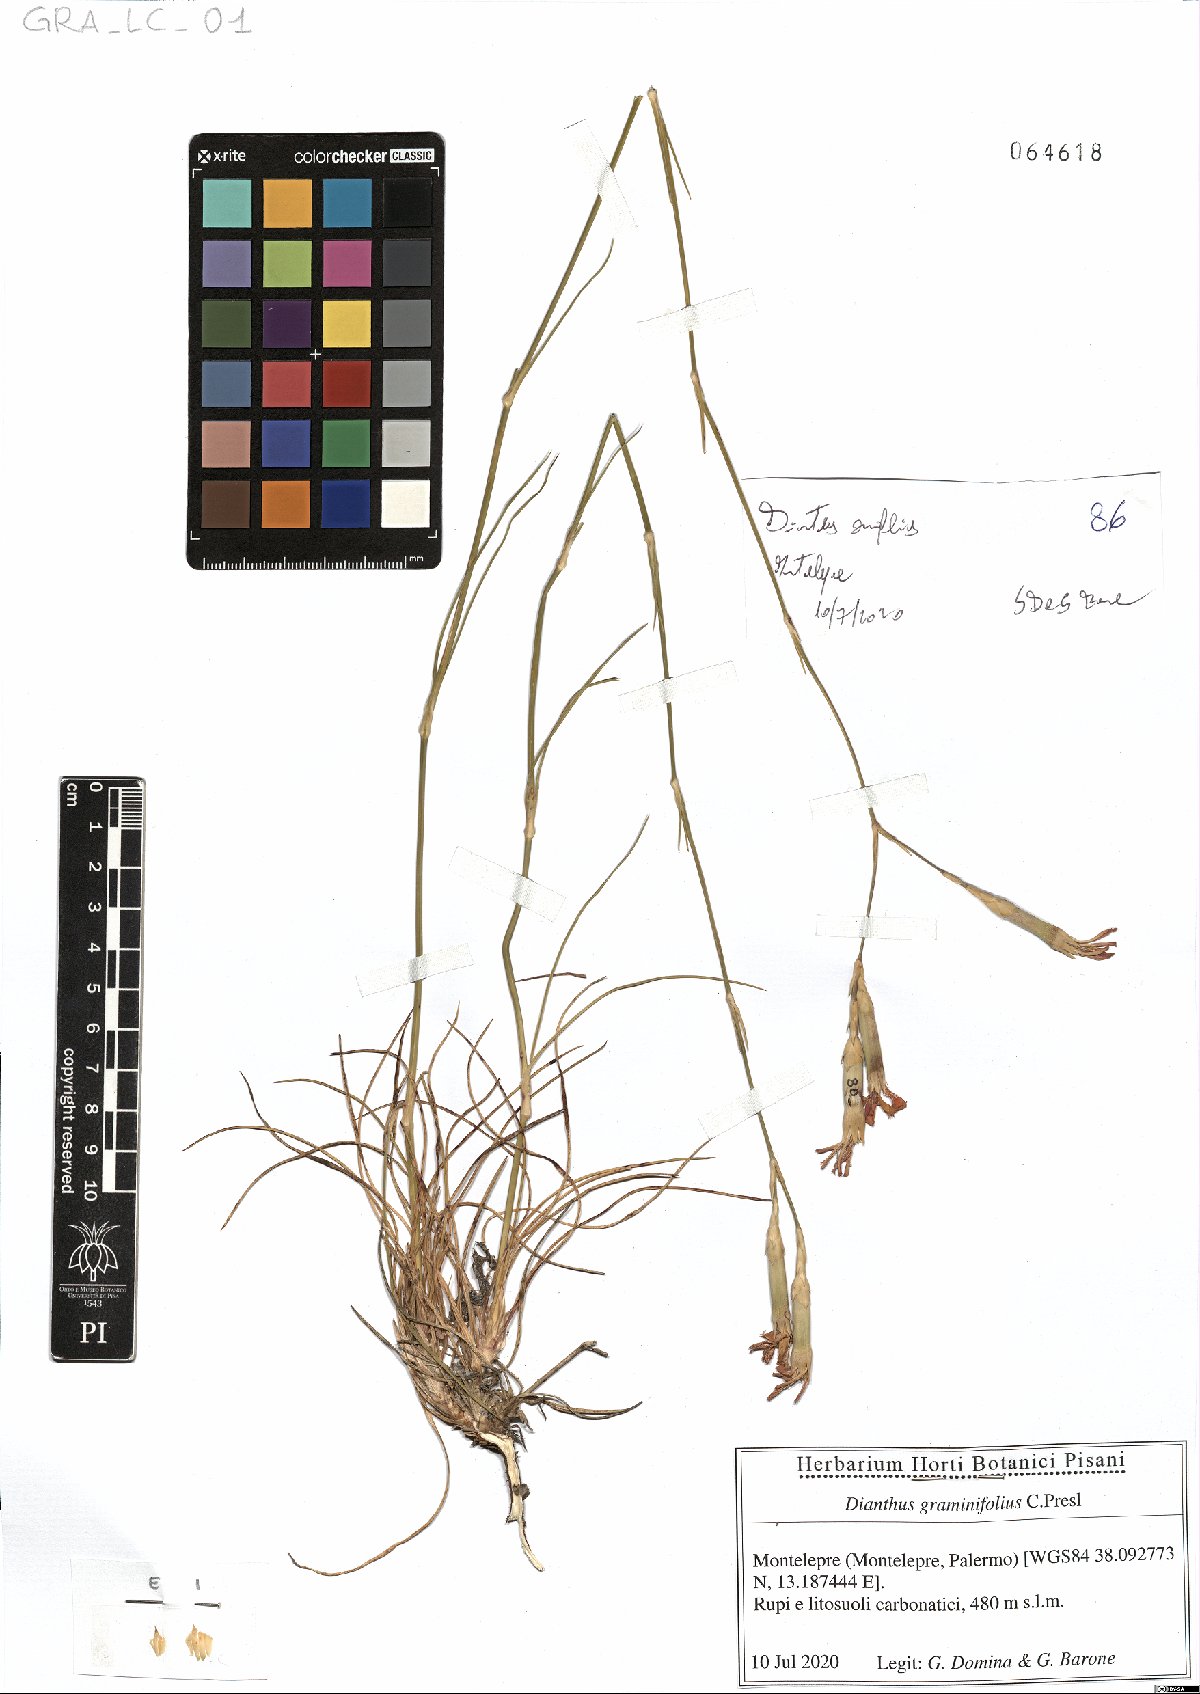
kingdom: Plantae
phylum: Tracheophyta
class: Magnoliopsida
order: Caryophyllales
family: Caryophyllaceae
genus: Dianthus
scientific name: Dianthus graminifolius
